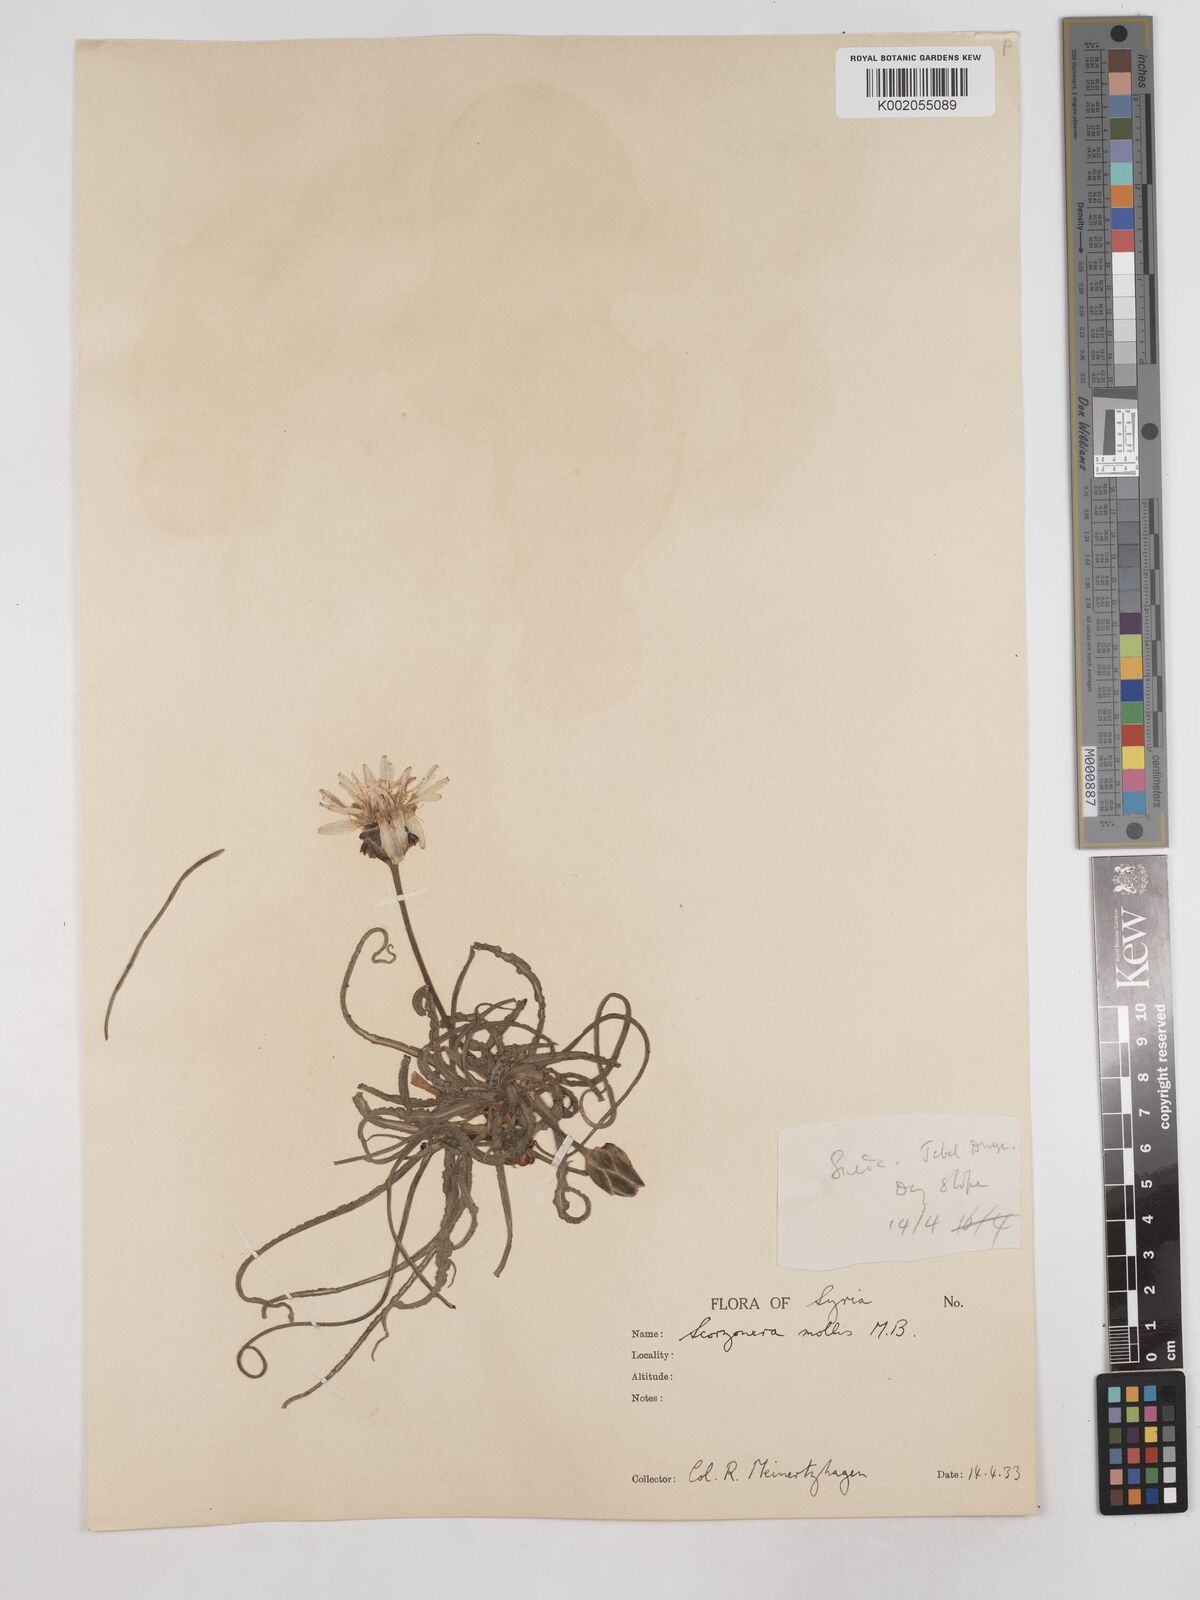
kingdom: Plantae
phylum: Tracheophyta
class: Magnoliopsida
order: Asterales
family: Asteraceae
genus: Candollea
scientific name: Candollea mollis
